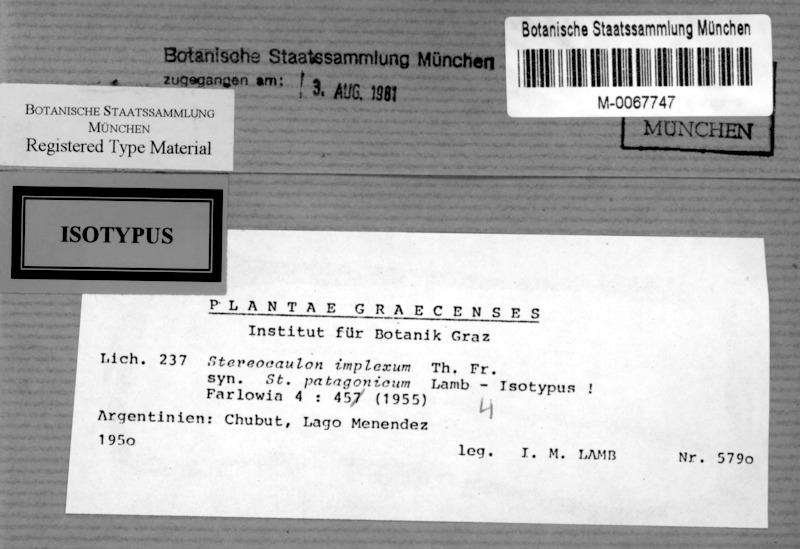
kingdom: Fungi
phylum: Ascomycota
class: Lecanoromycetes
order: Lecanorales
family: Stereocaulaceae
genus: Stereocaulon
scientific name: Stereocaulon implexum
